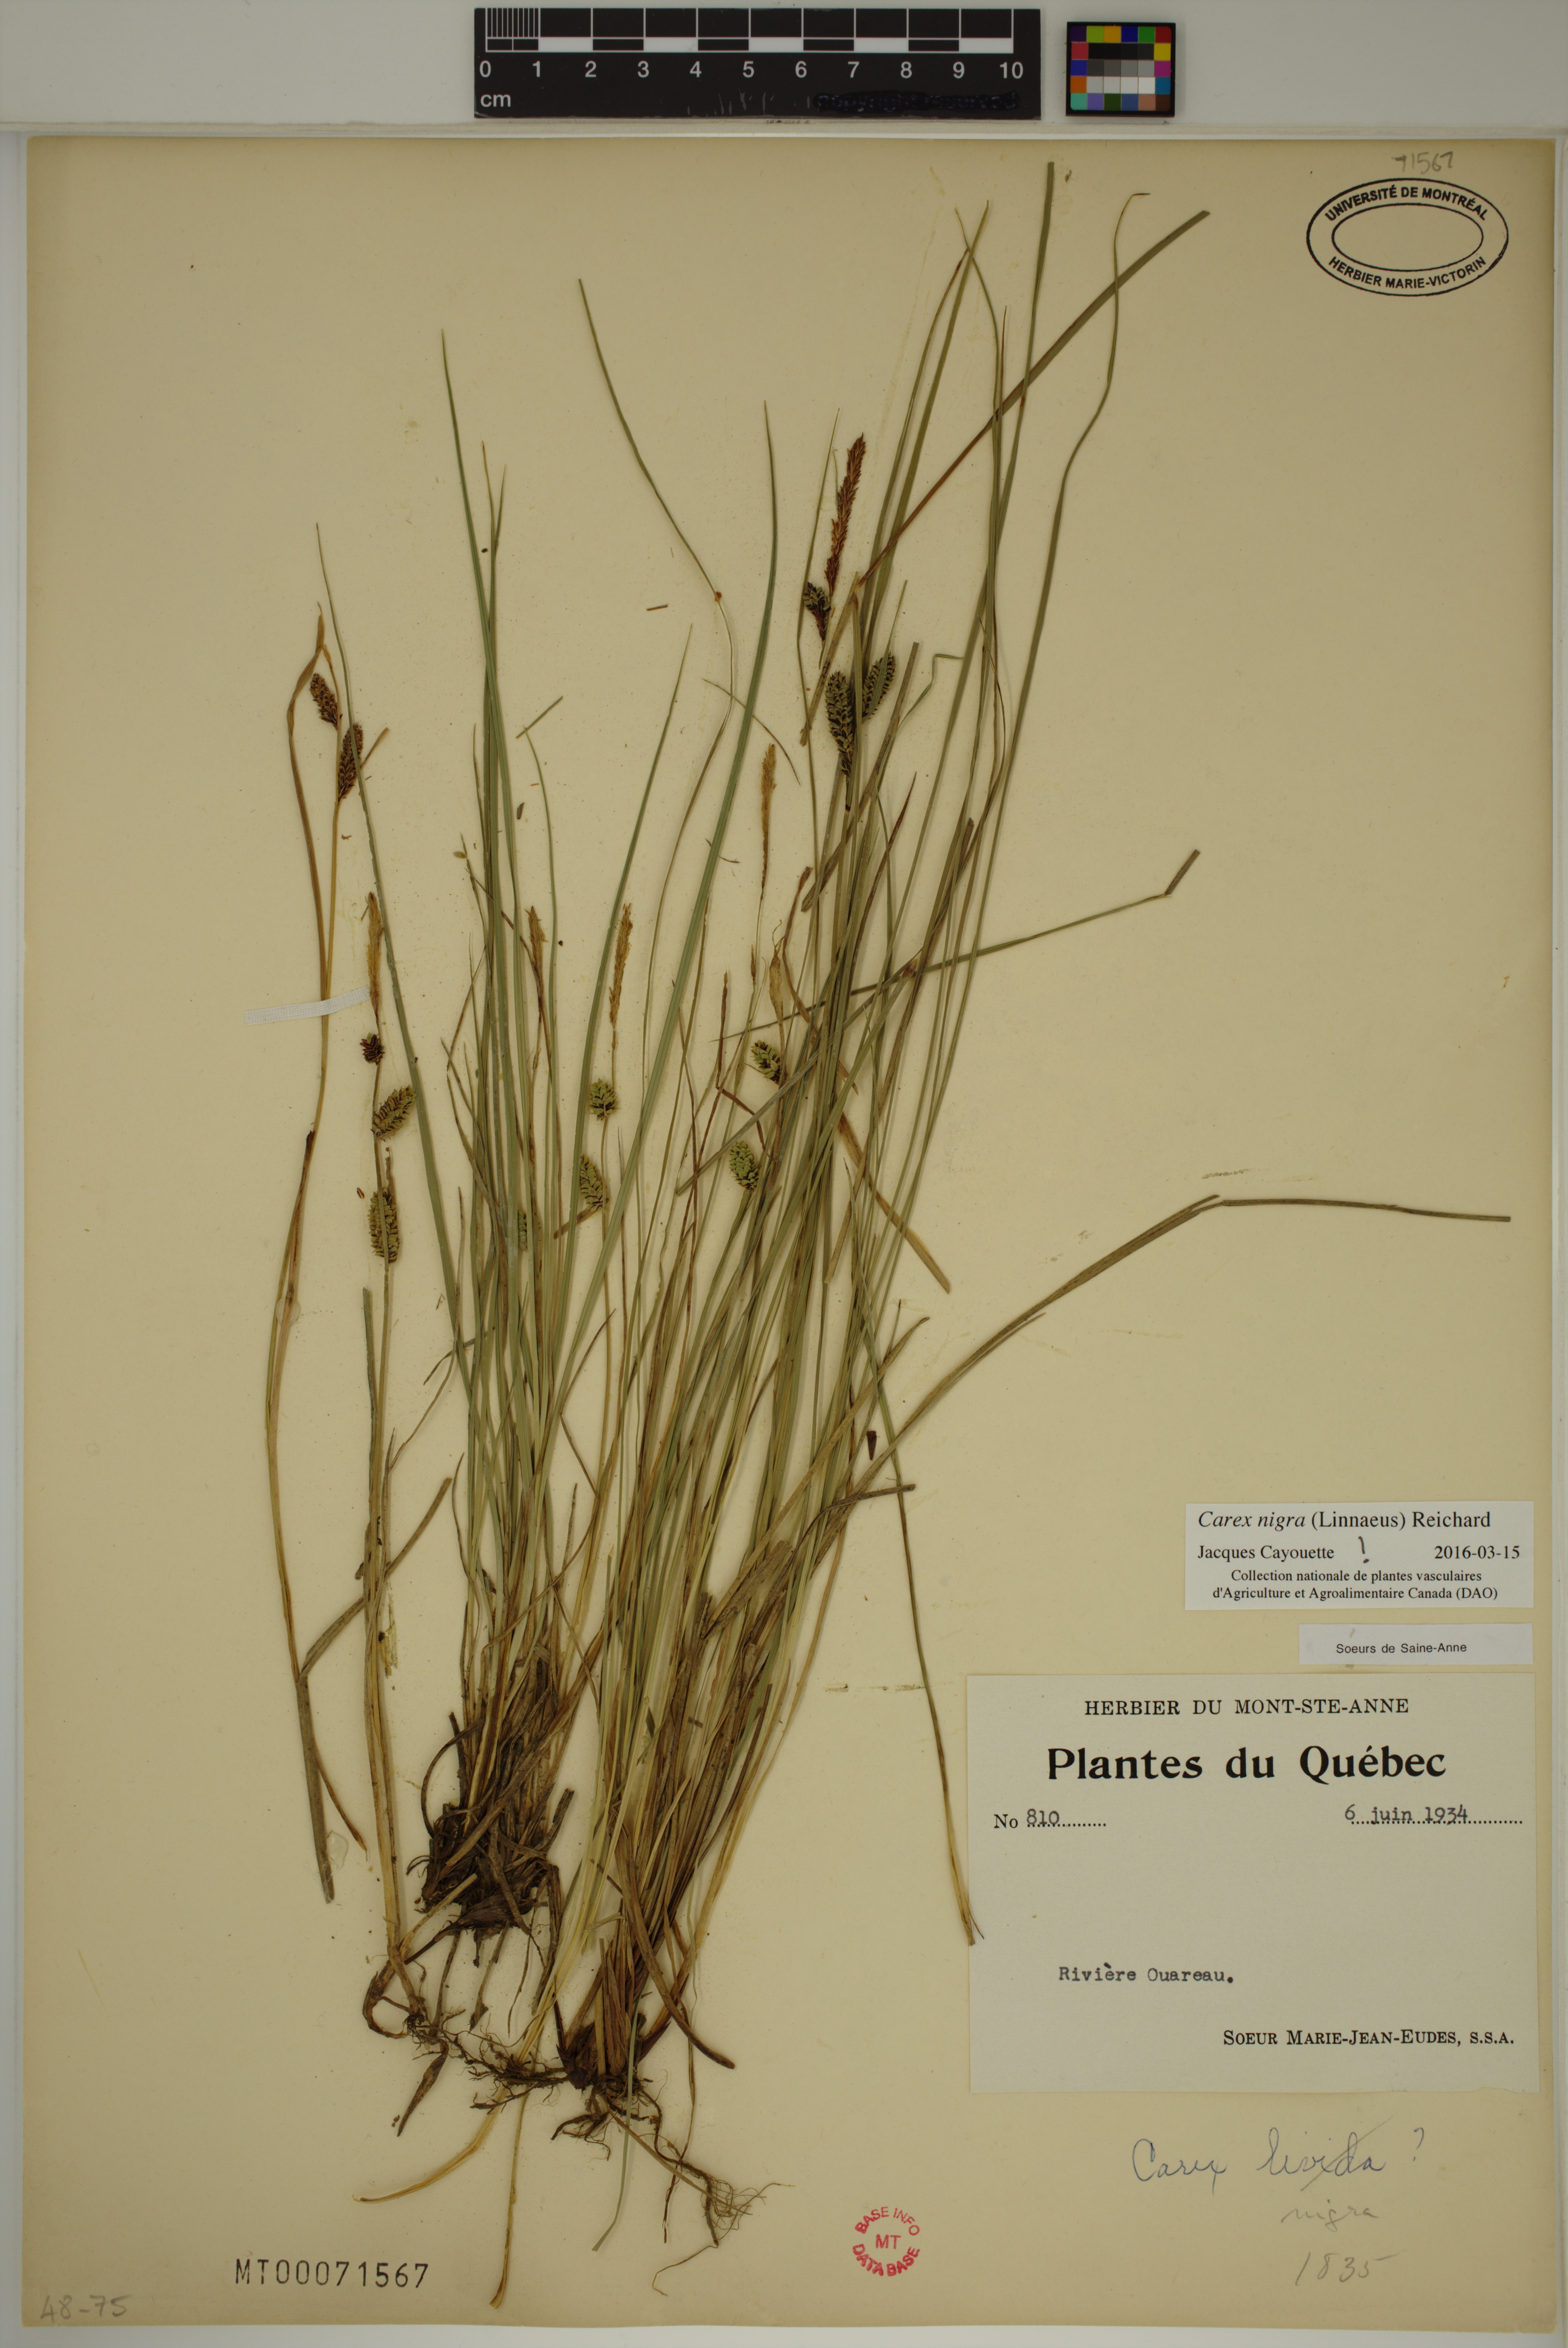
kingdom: Plantae
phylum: Tracheophyta
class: Liliopsida
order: Poales
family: Cyperaceae
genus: Carex
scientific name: Carex nigra
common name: Common sedge
